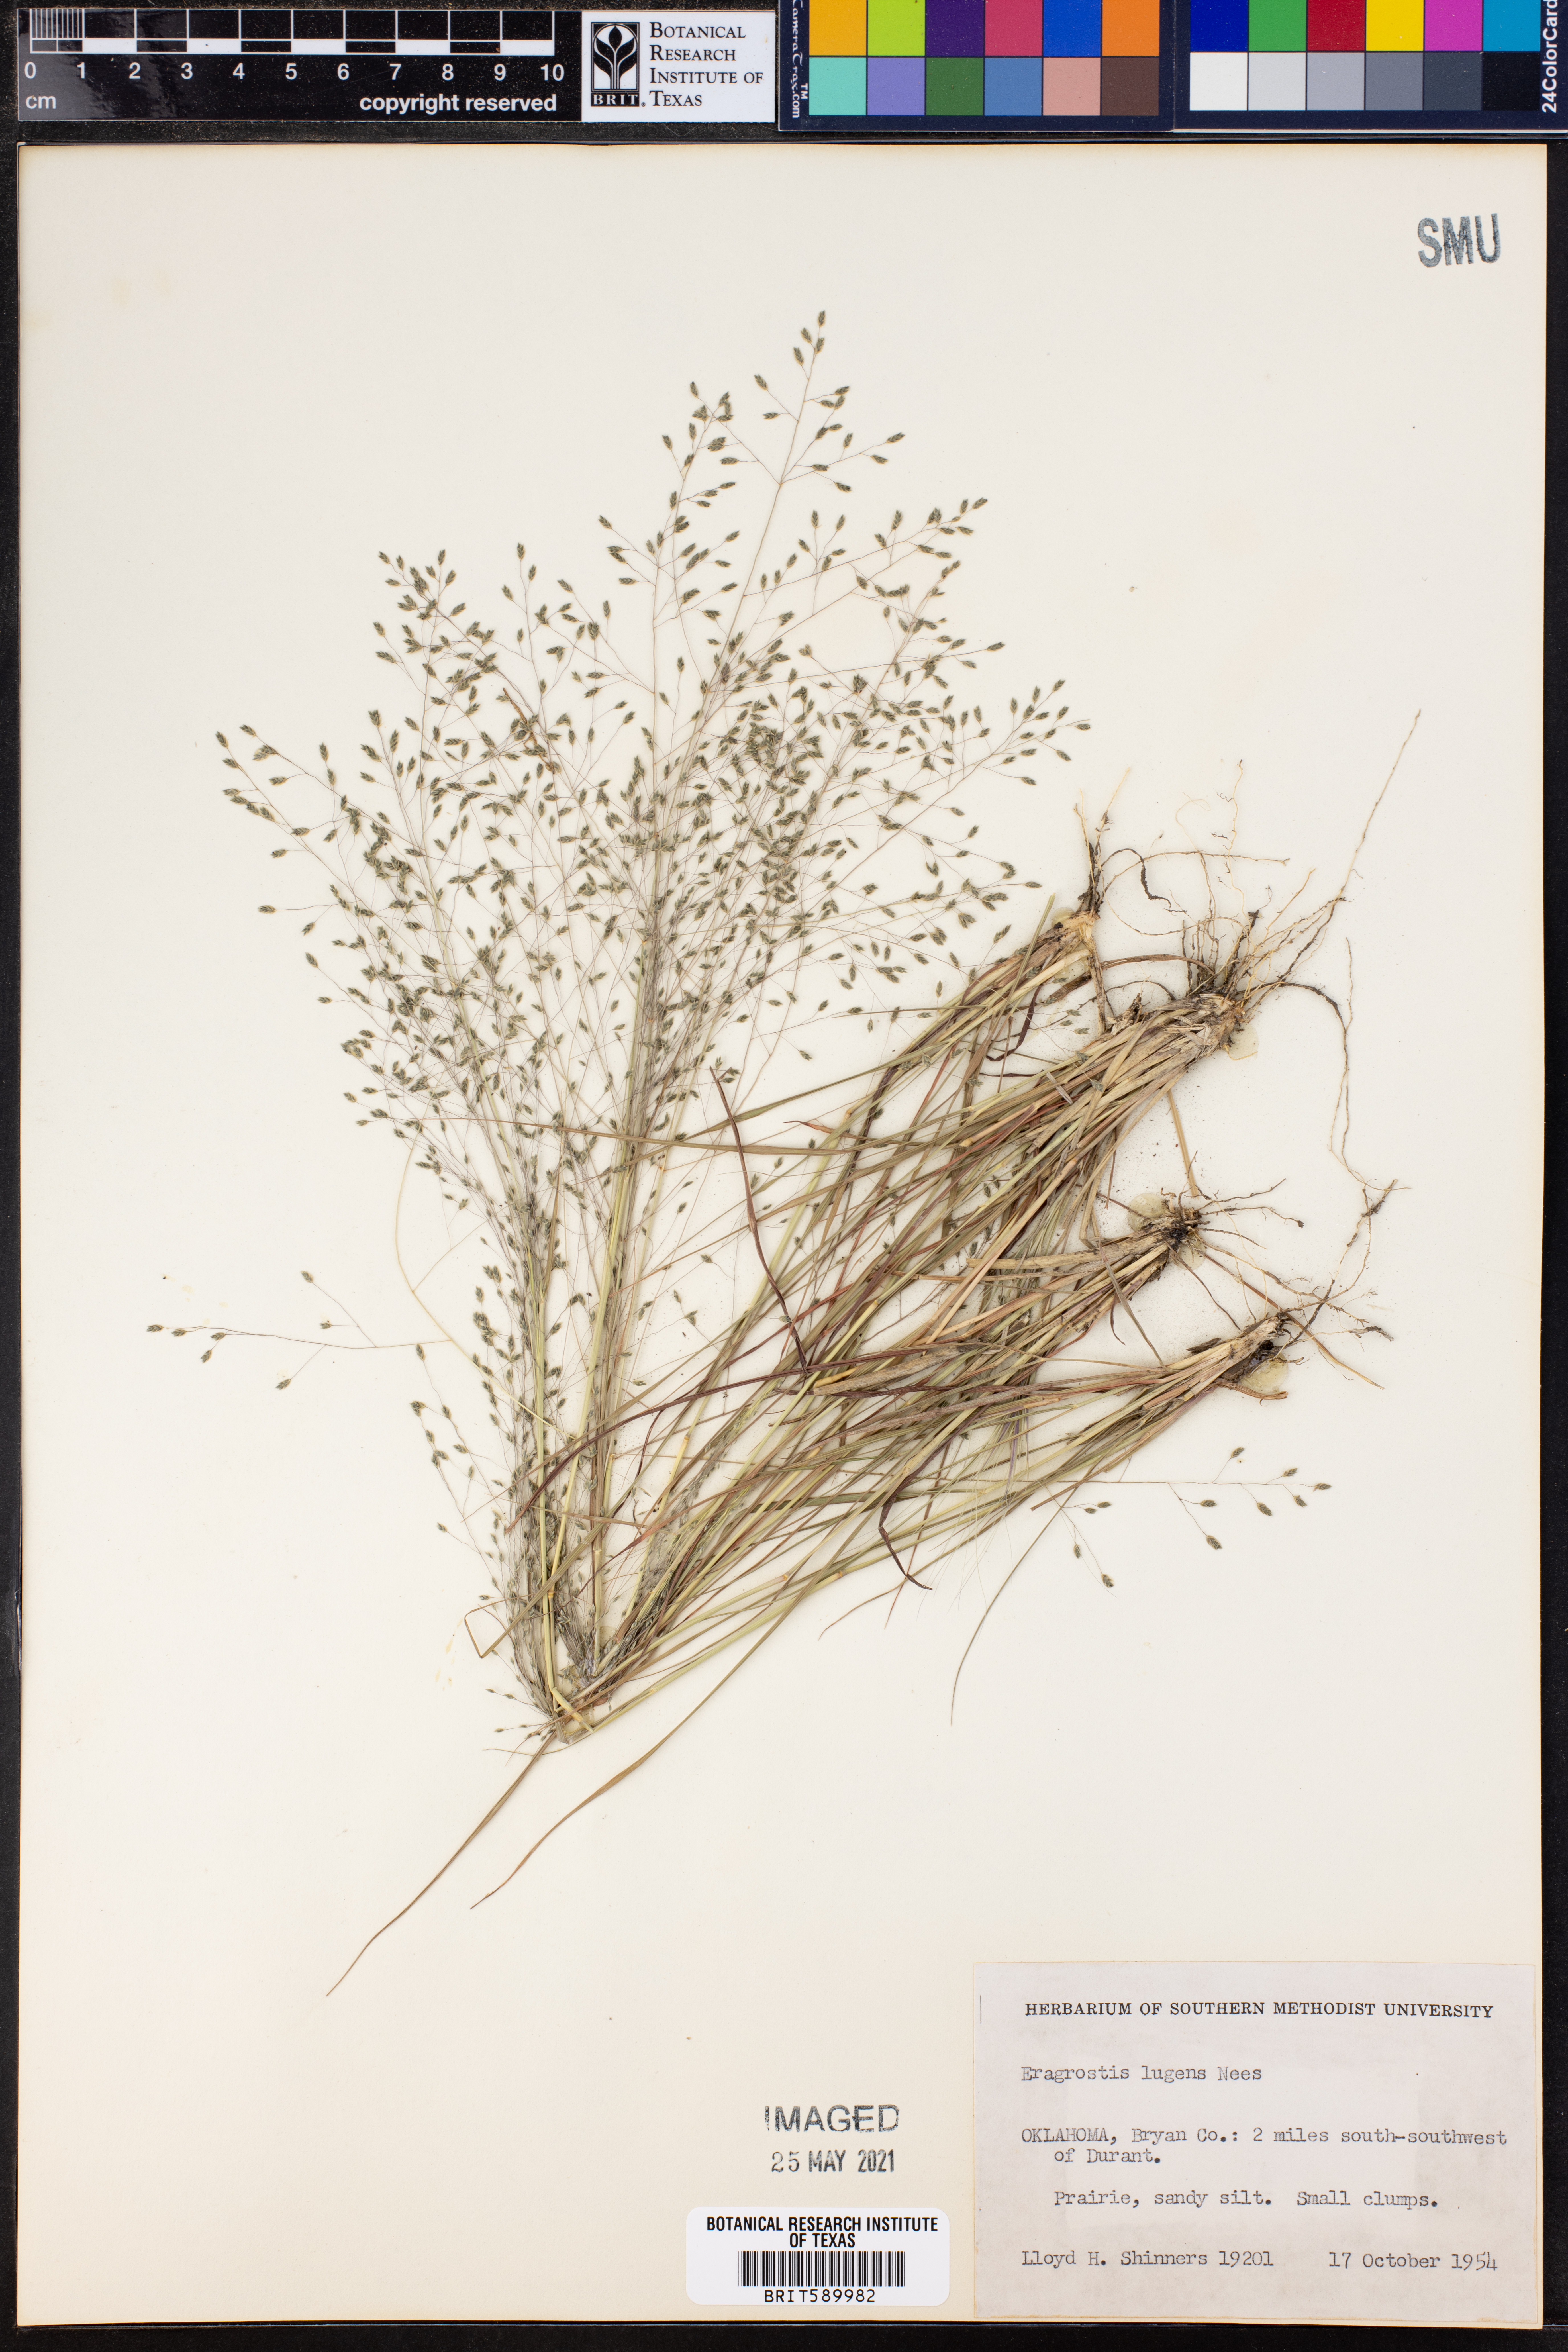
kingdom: Plantae
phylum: Tracheophyta
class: Liliopsida
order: Poales
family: Poaceae
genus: Eragrostis
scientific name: Eragrostis capillaris
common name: Hair-like lovegrass
